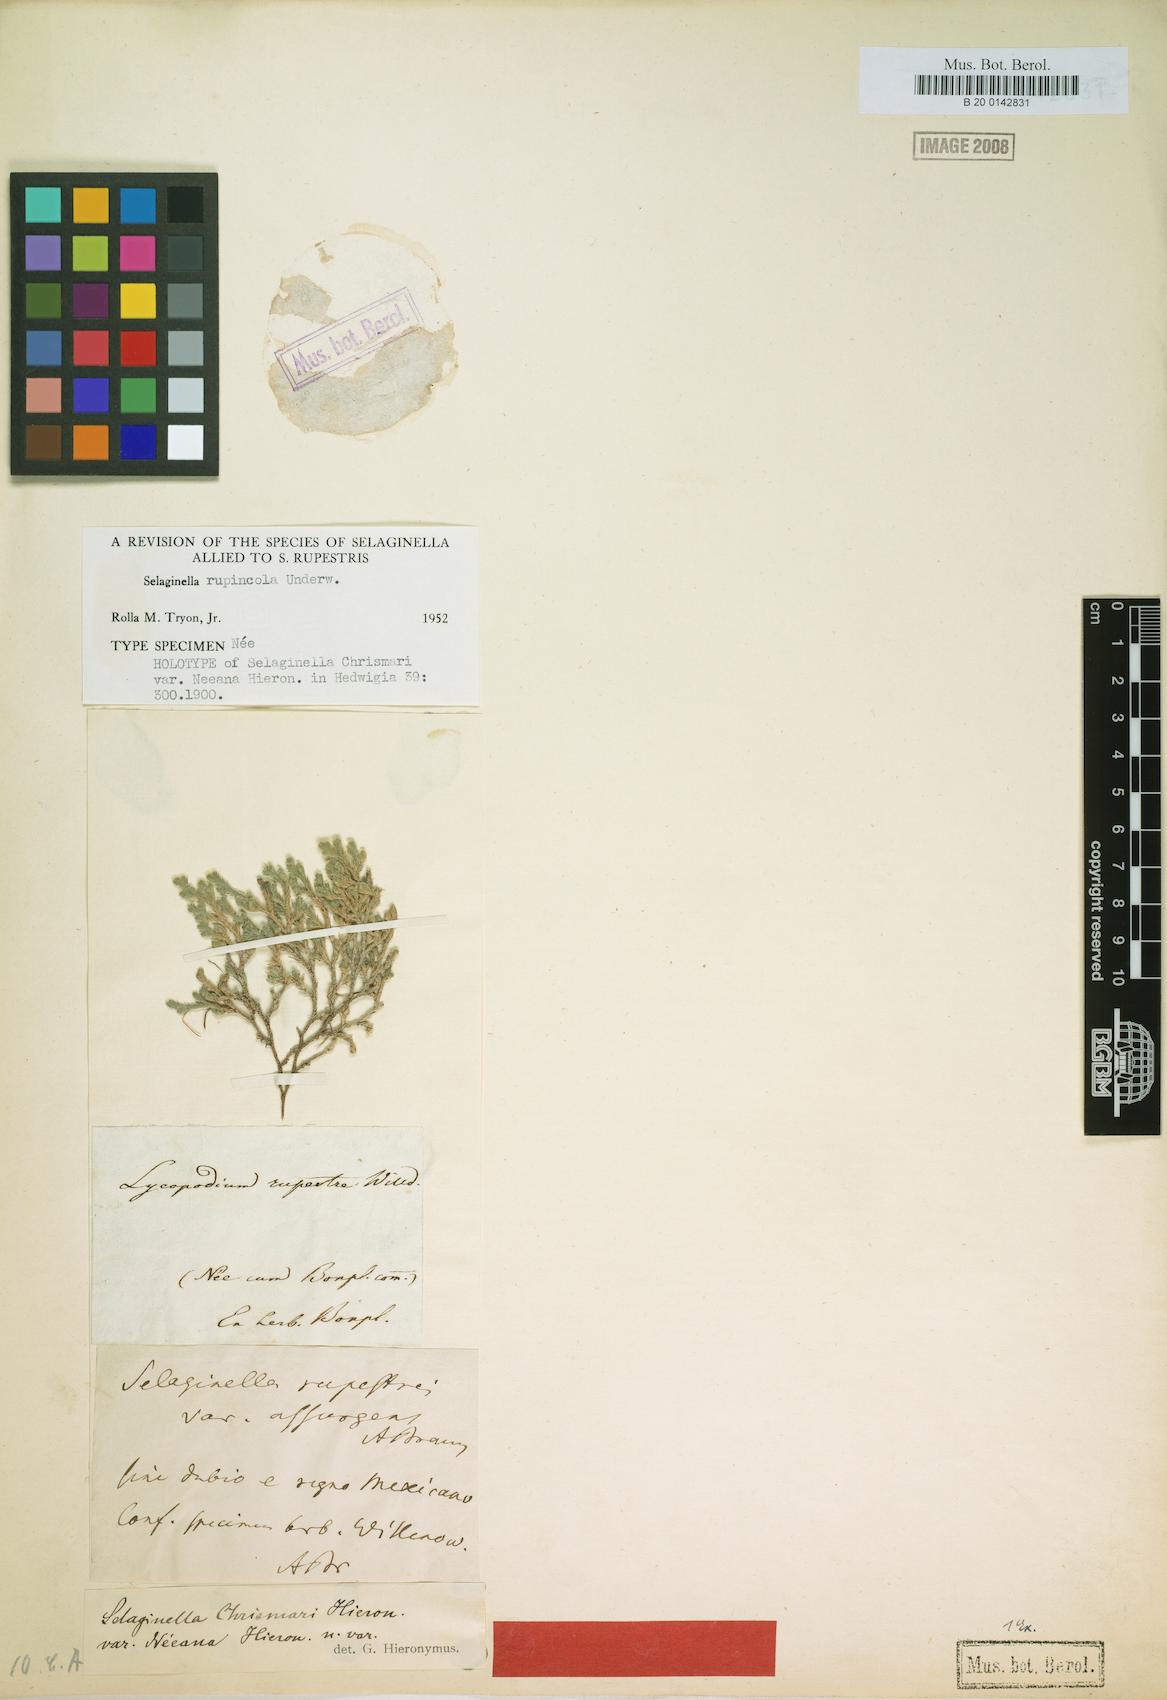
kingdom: Plantae
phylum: Tracheophyta
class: Lycopodiopsida
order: Selaginellales
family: Selaginellaceae
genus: Selaginella
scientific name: Selaginella rupincola
